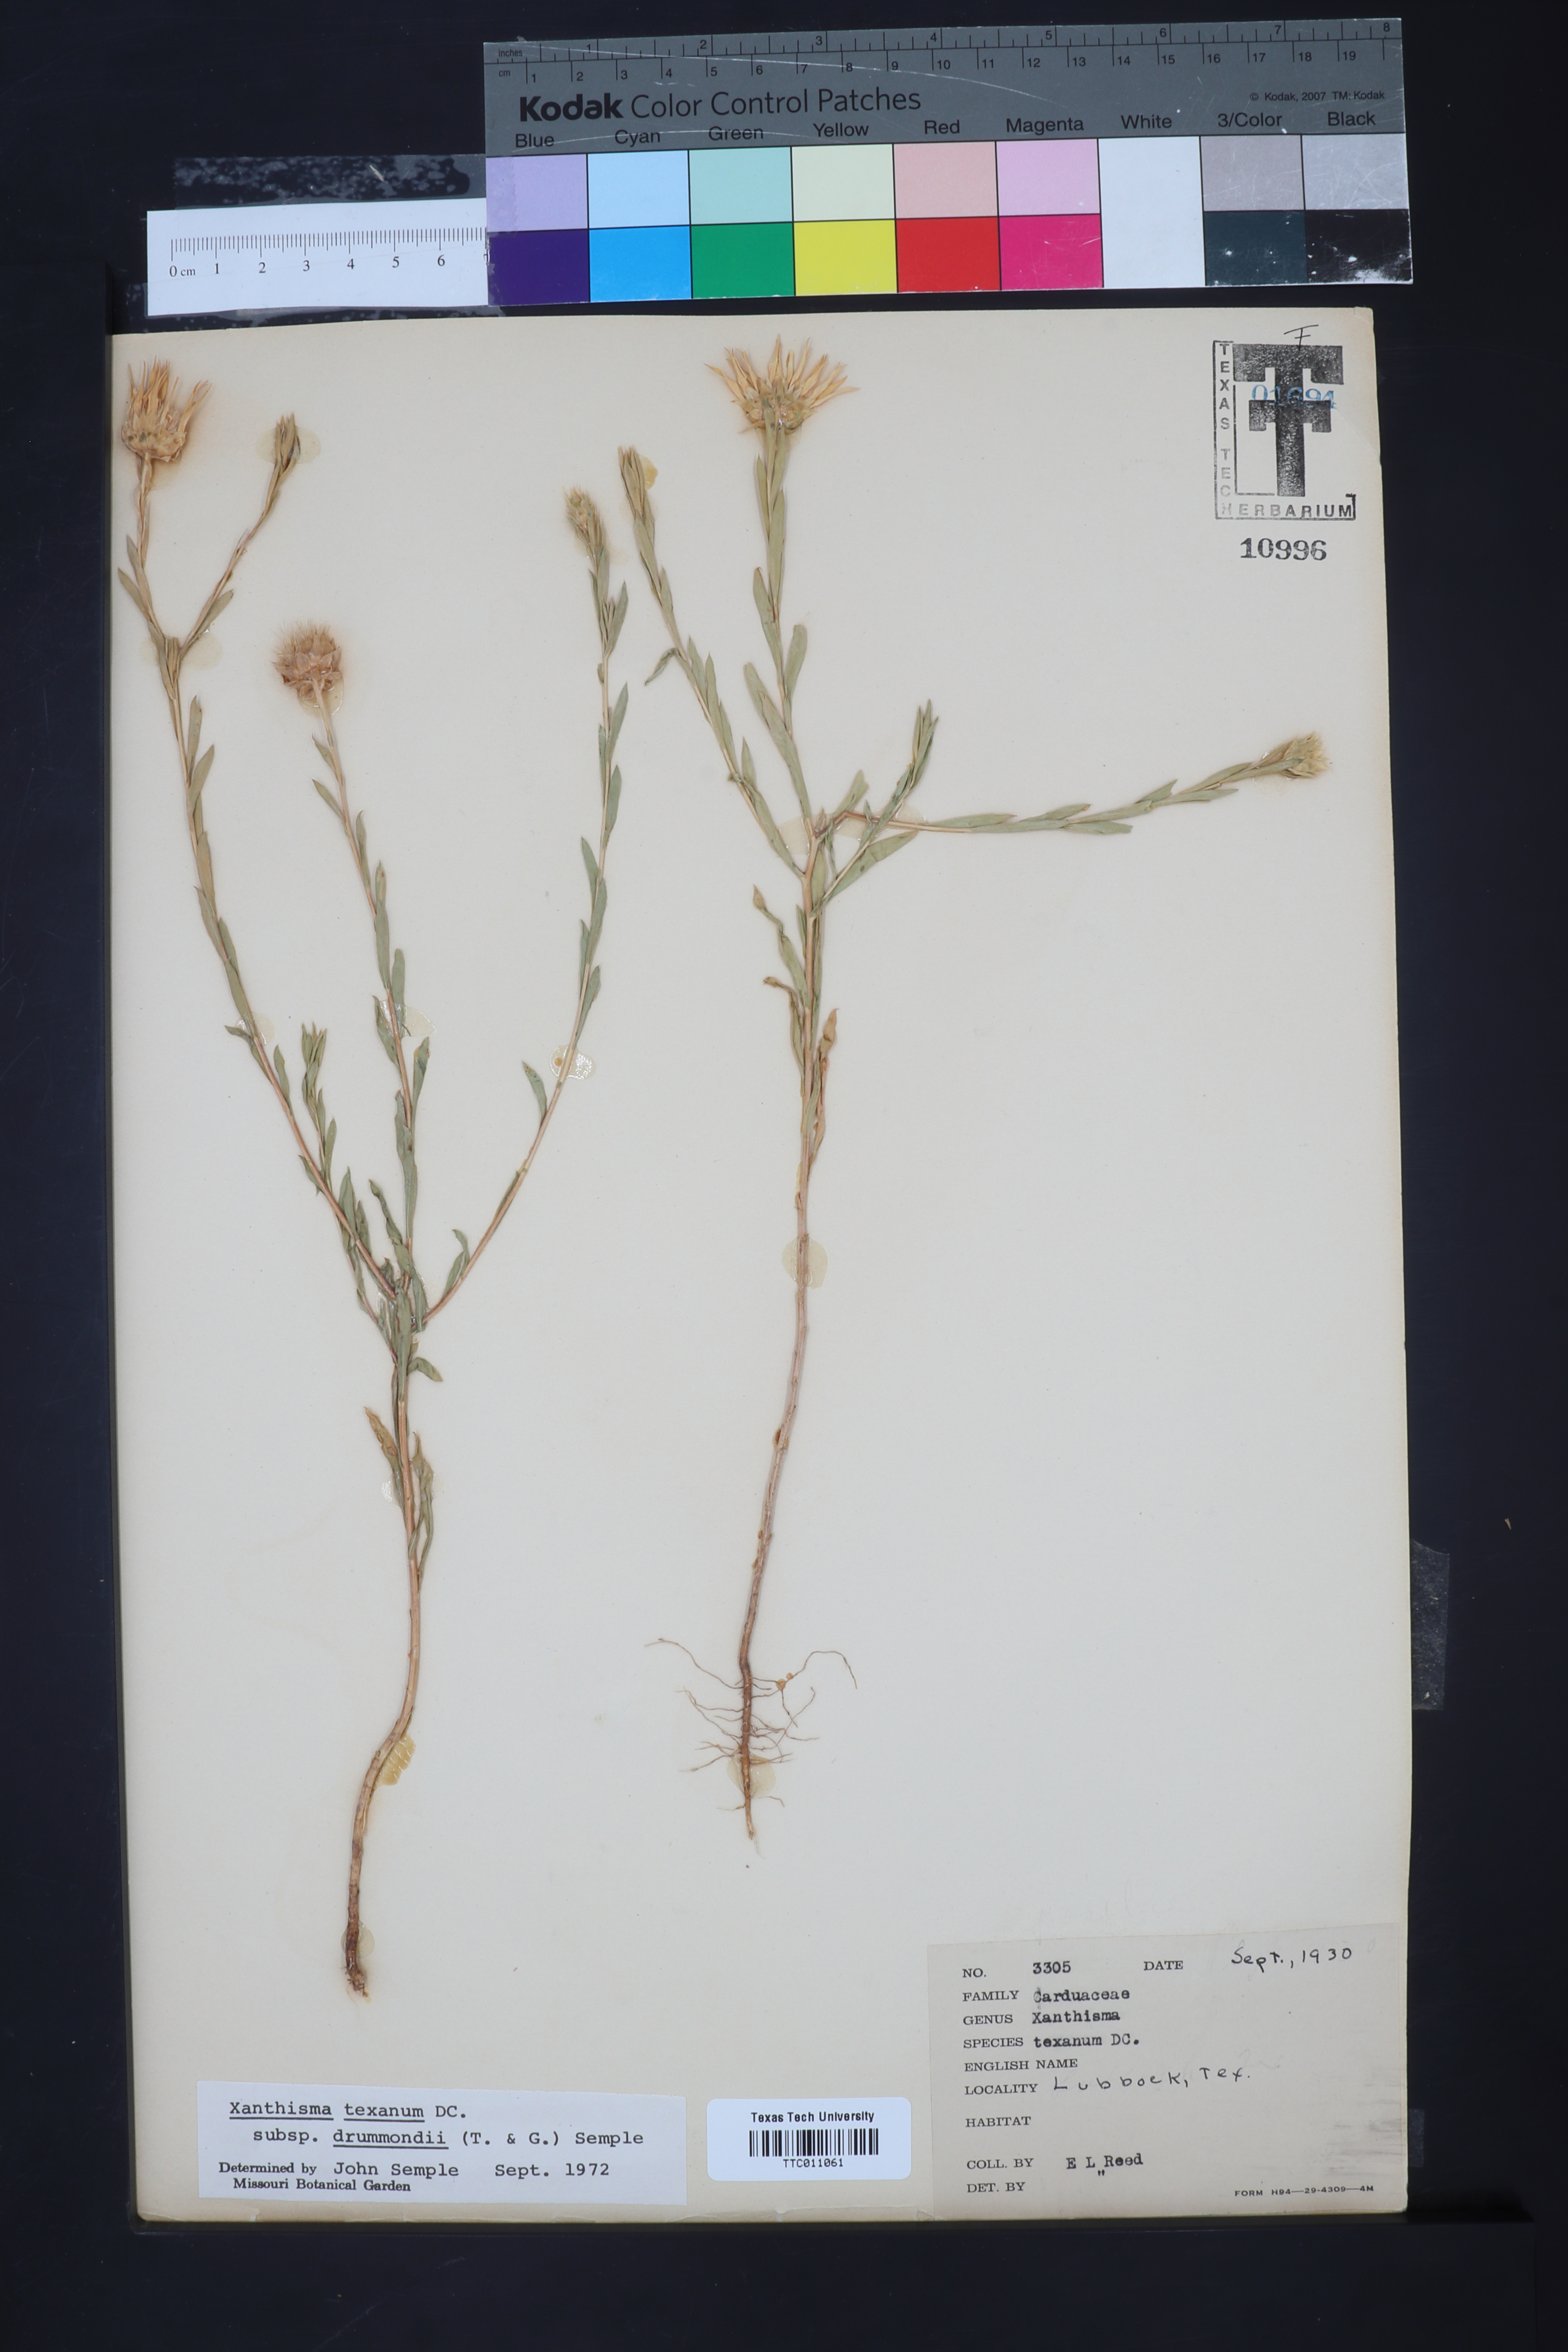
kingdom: Plantae
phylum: Tracheophyta
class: Magnoliopsida
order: Asterales
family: Asteraceae
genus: Xanthisma
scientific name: Xanthisma texanum
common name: Texas sleepy daisy
